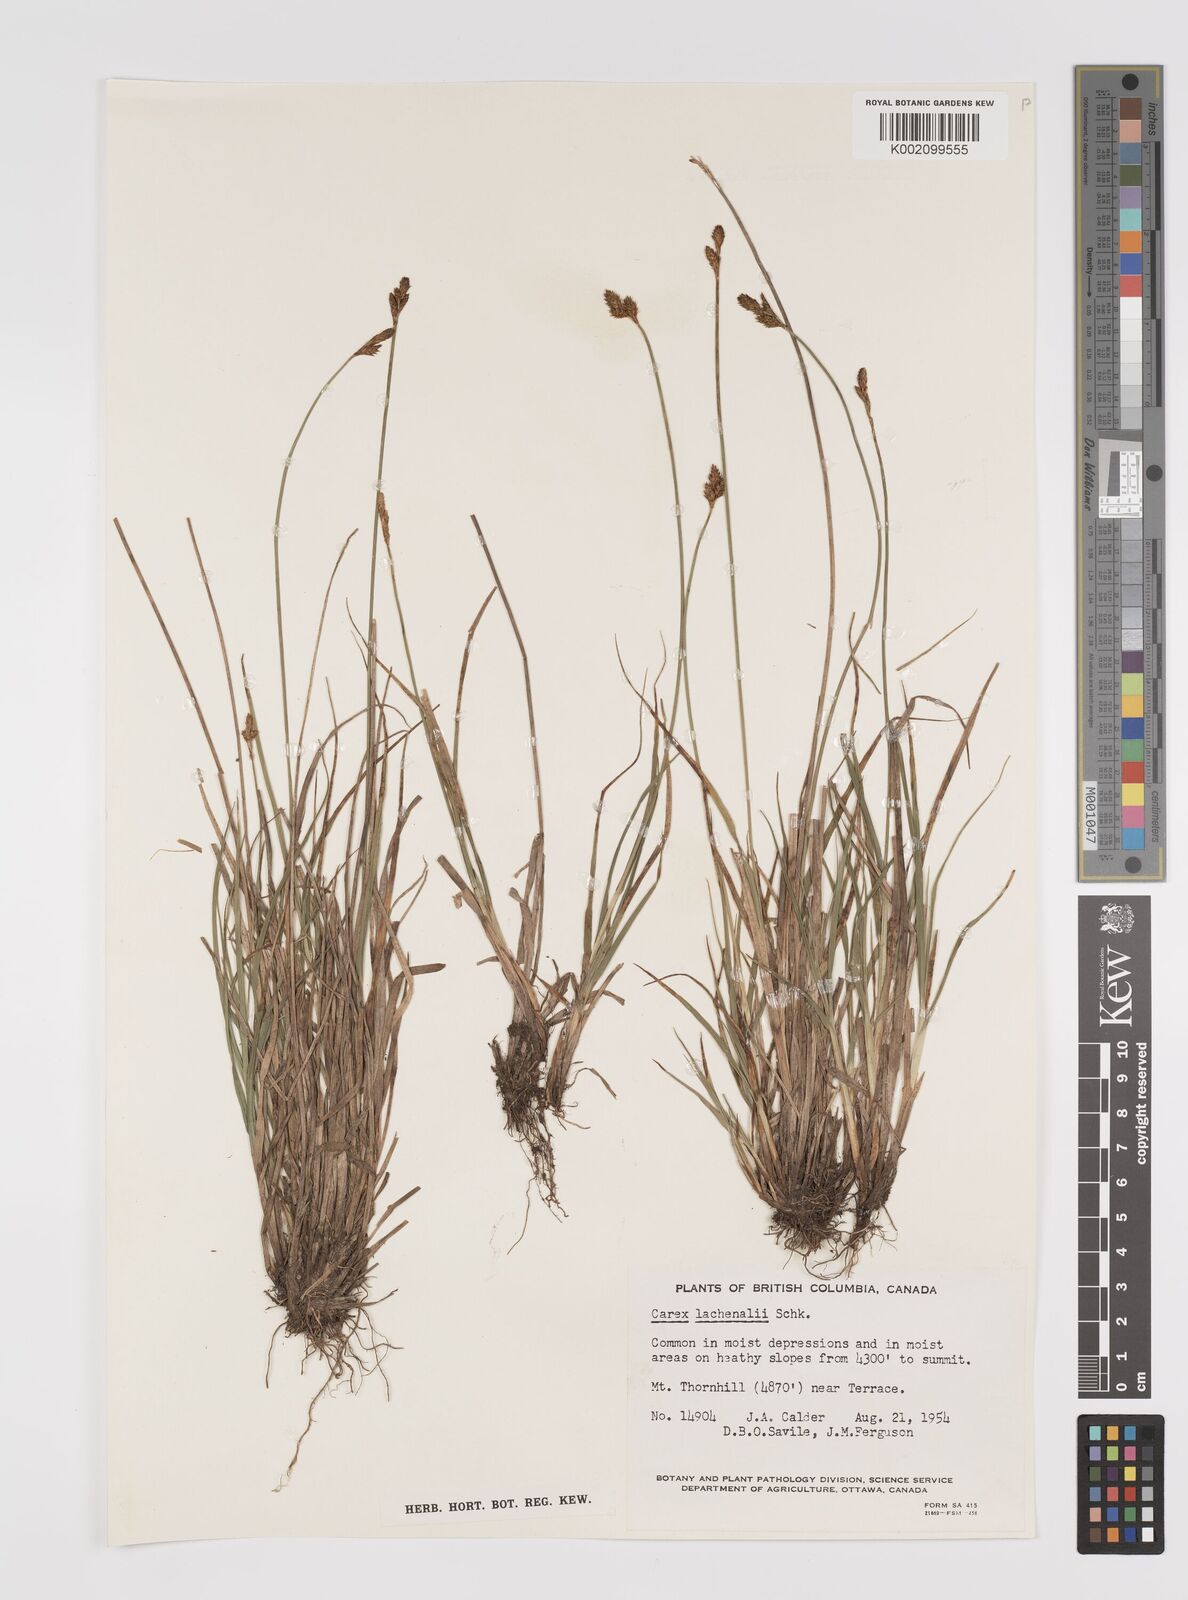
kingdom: Plantae
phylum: Tracheophyta
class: Liliopsida
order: Poales
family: Cyperaceae
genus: Carex
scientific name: Carex lachenalii
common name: Hare's-foot sedge
